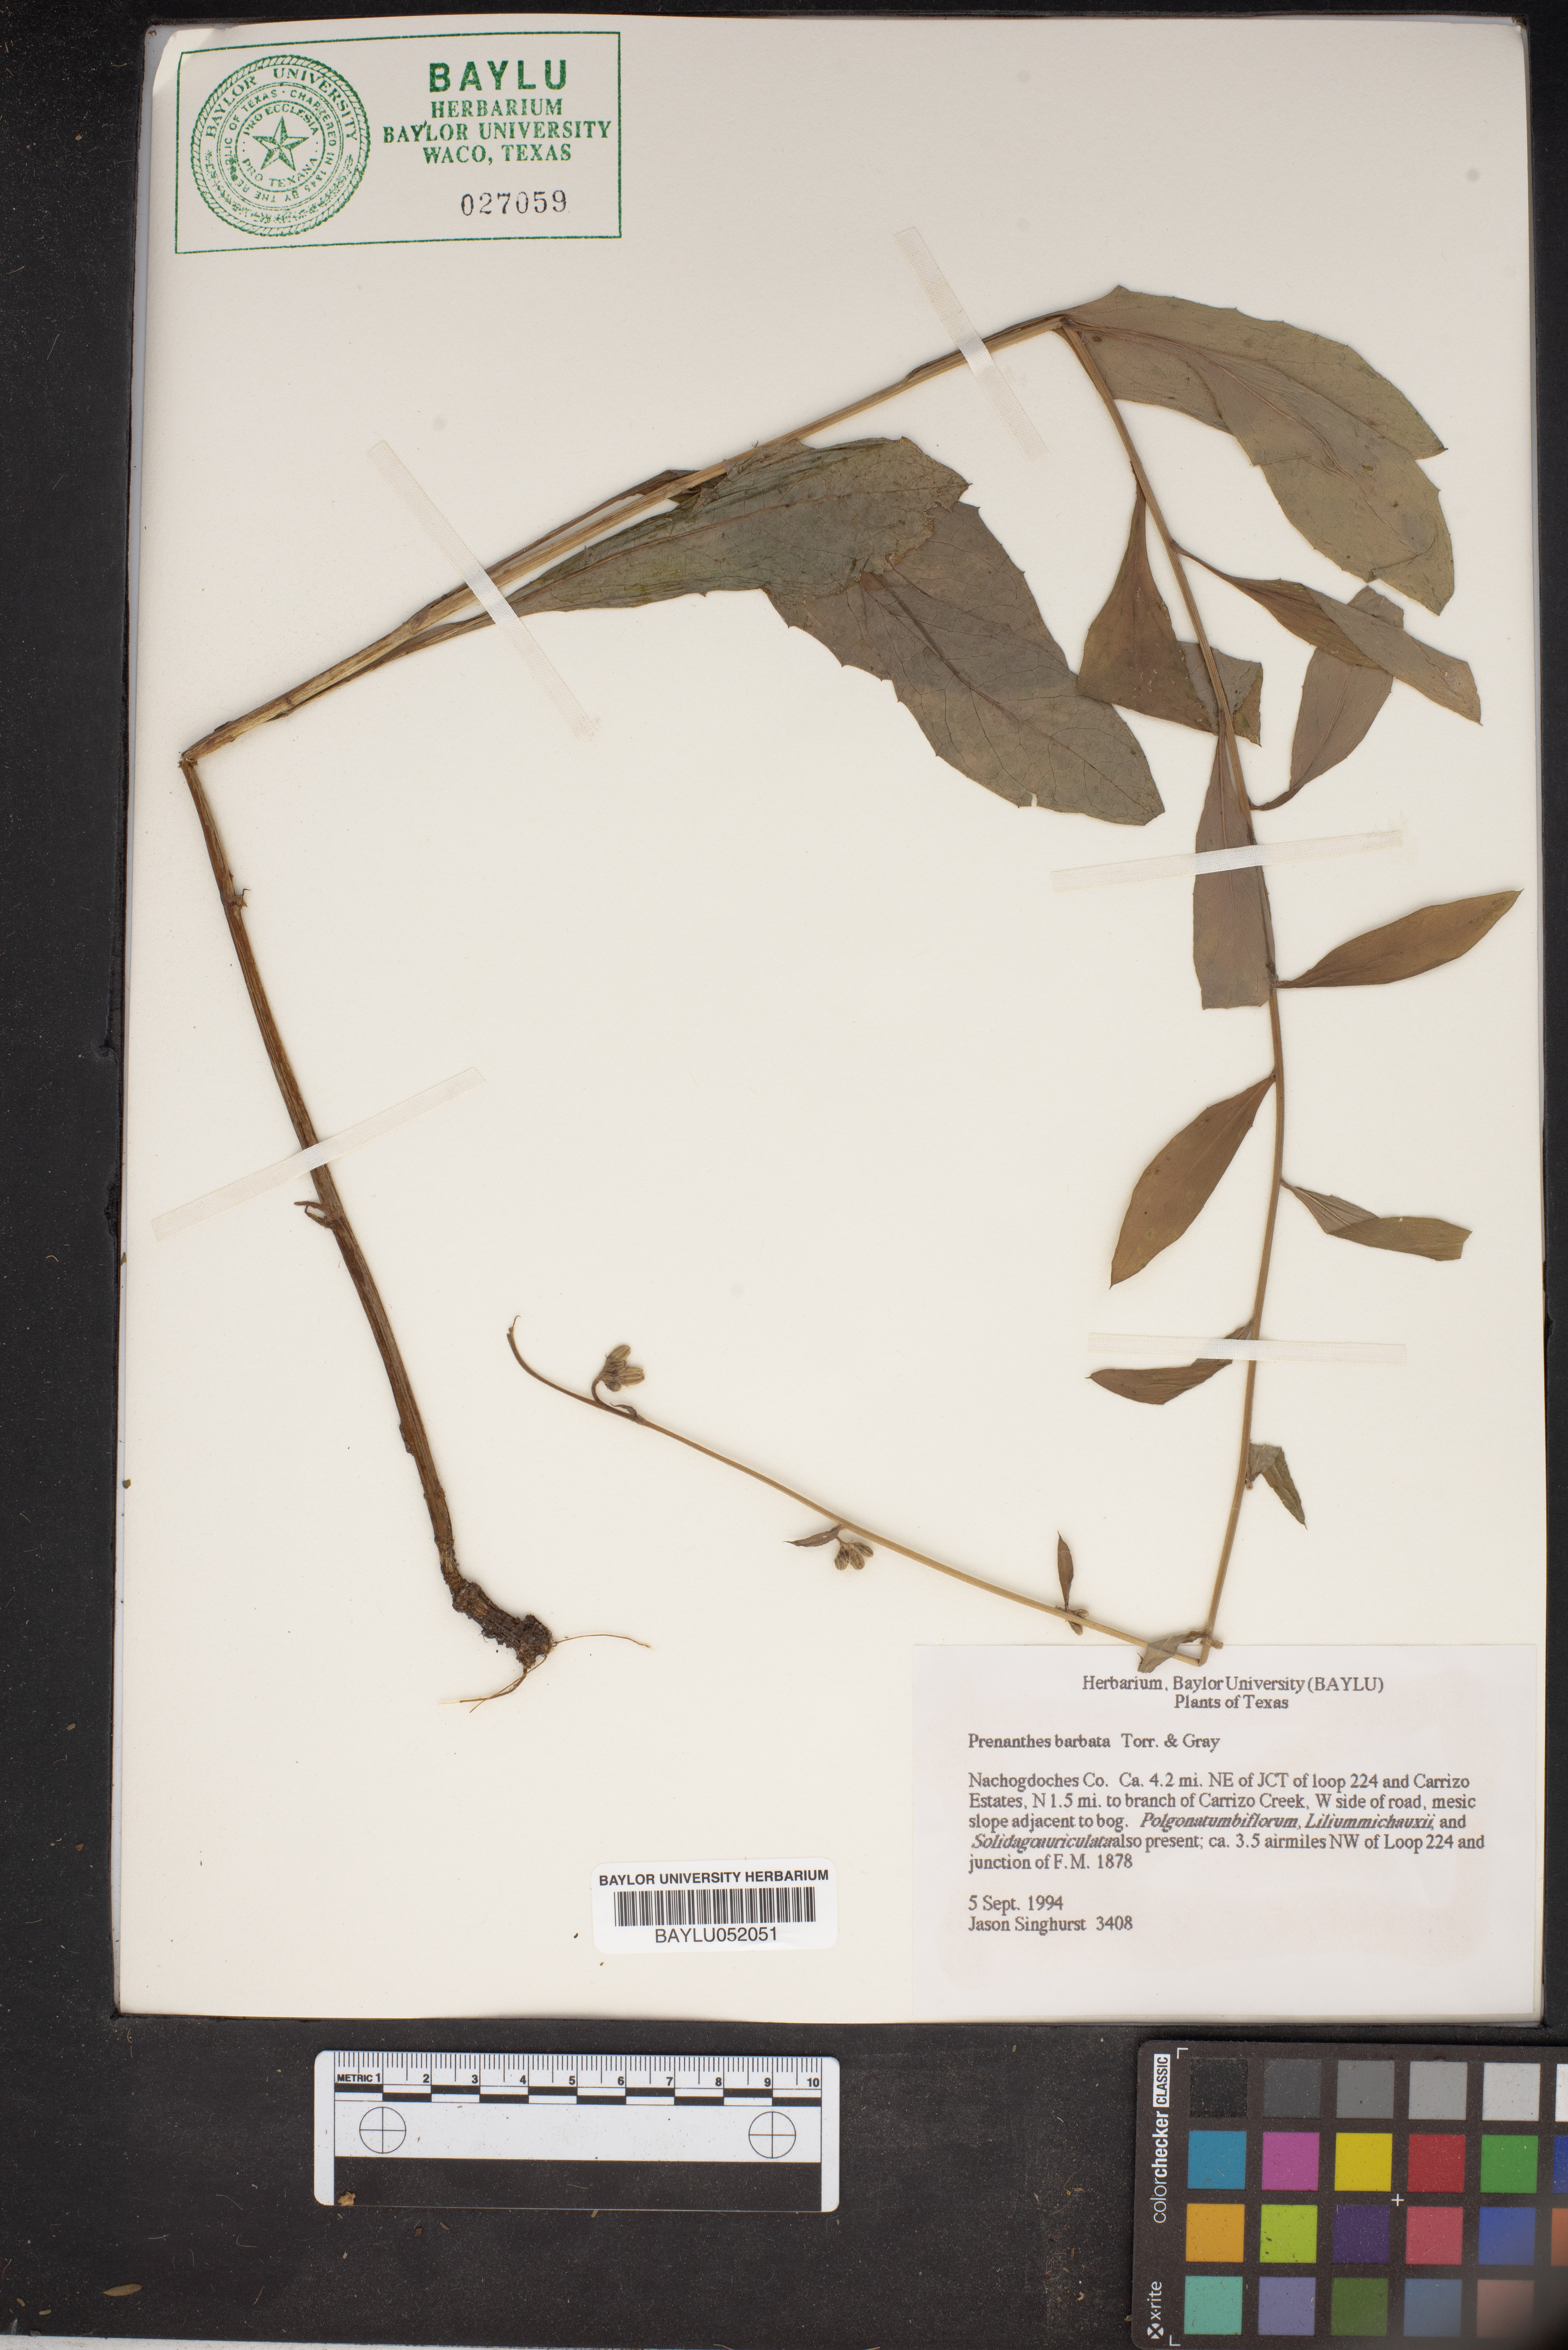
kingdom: Plantae
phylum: Tracheophyta
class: Magnoliopsida
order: Asterales
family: Asteraceae
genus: Nabalus
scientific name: Nabalus barbata
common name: Barbed rattlesnakeroot
